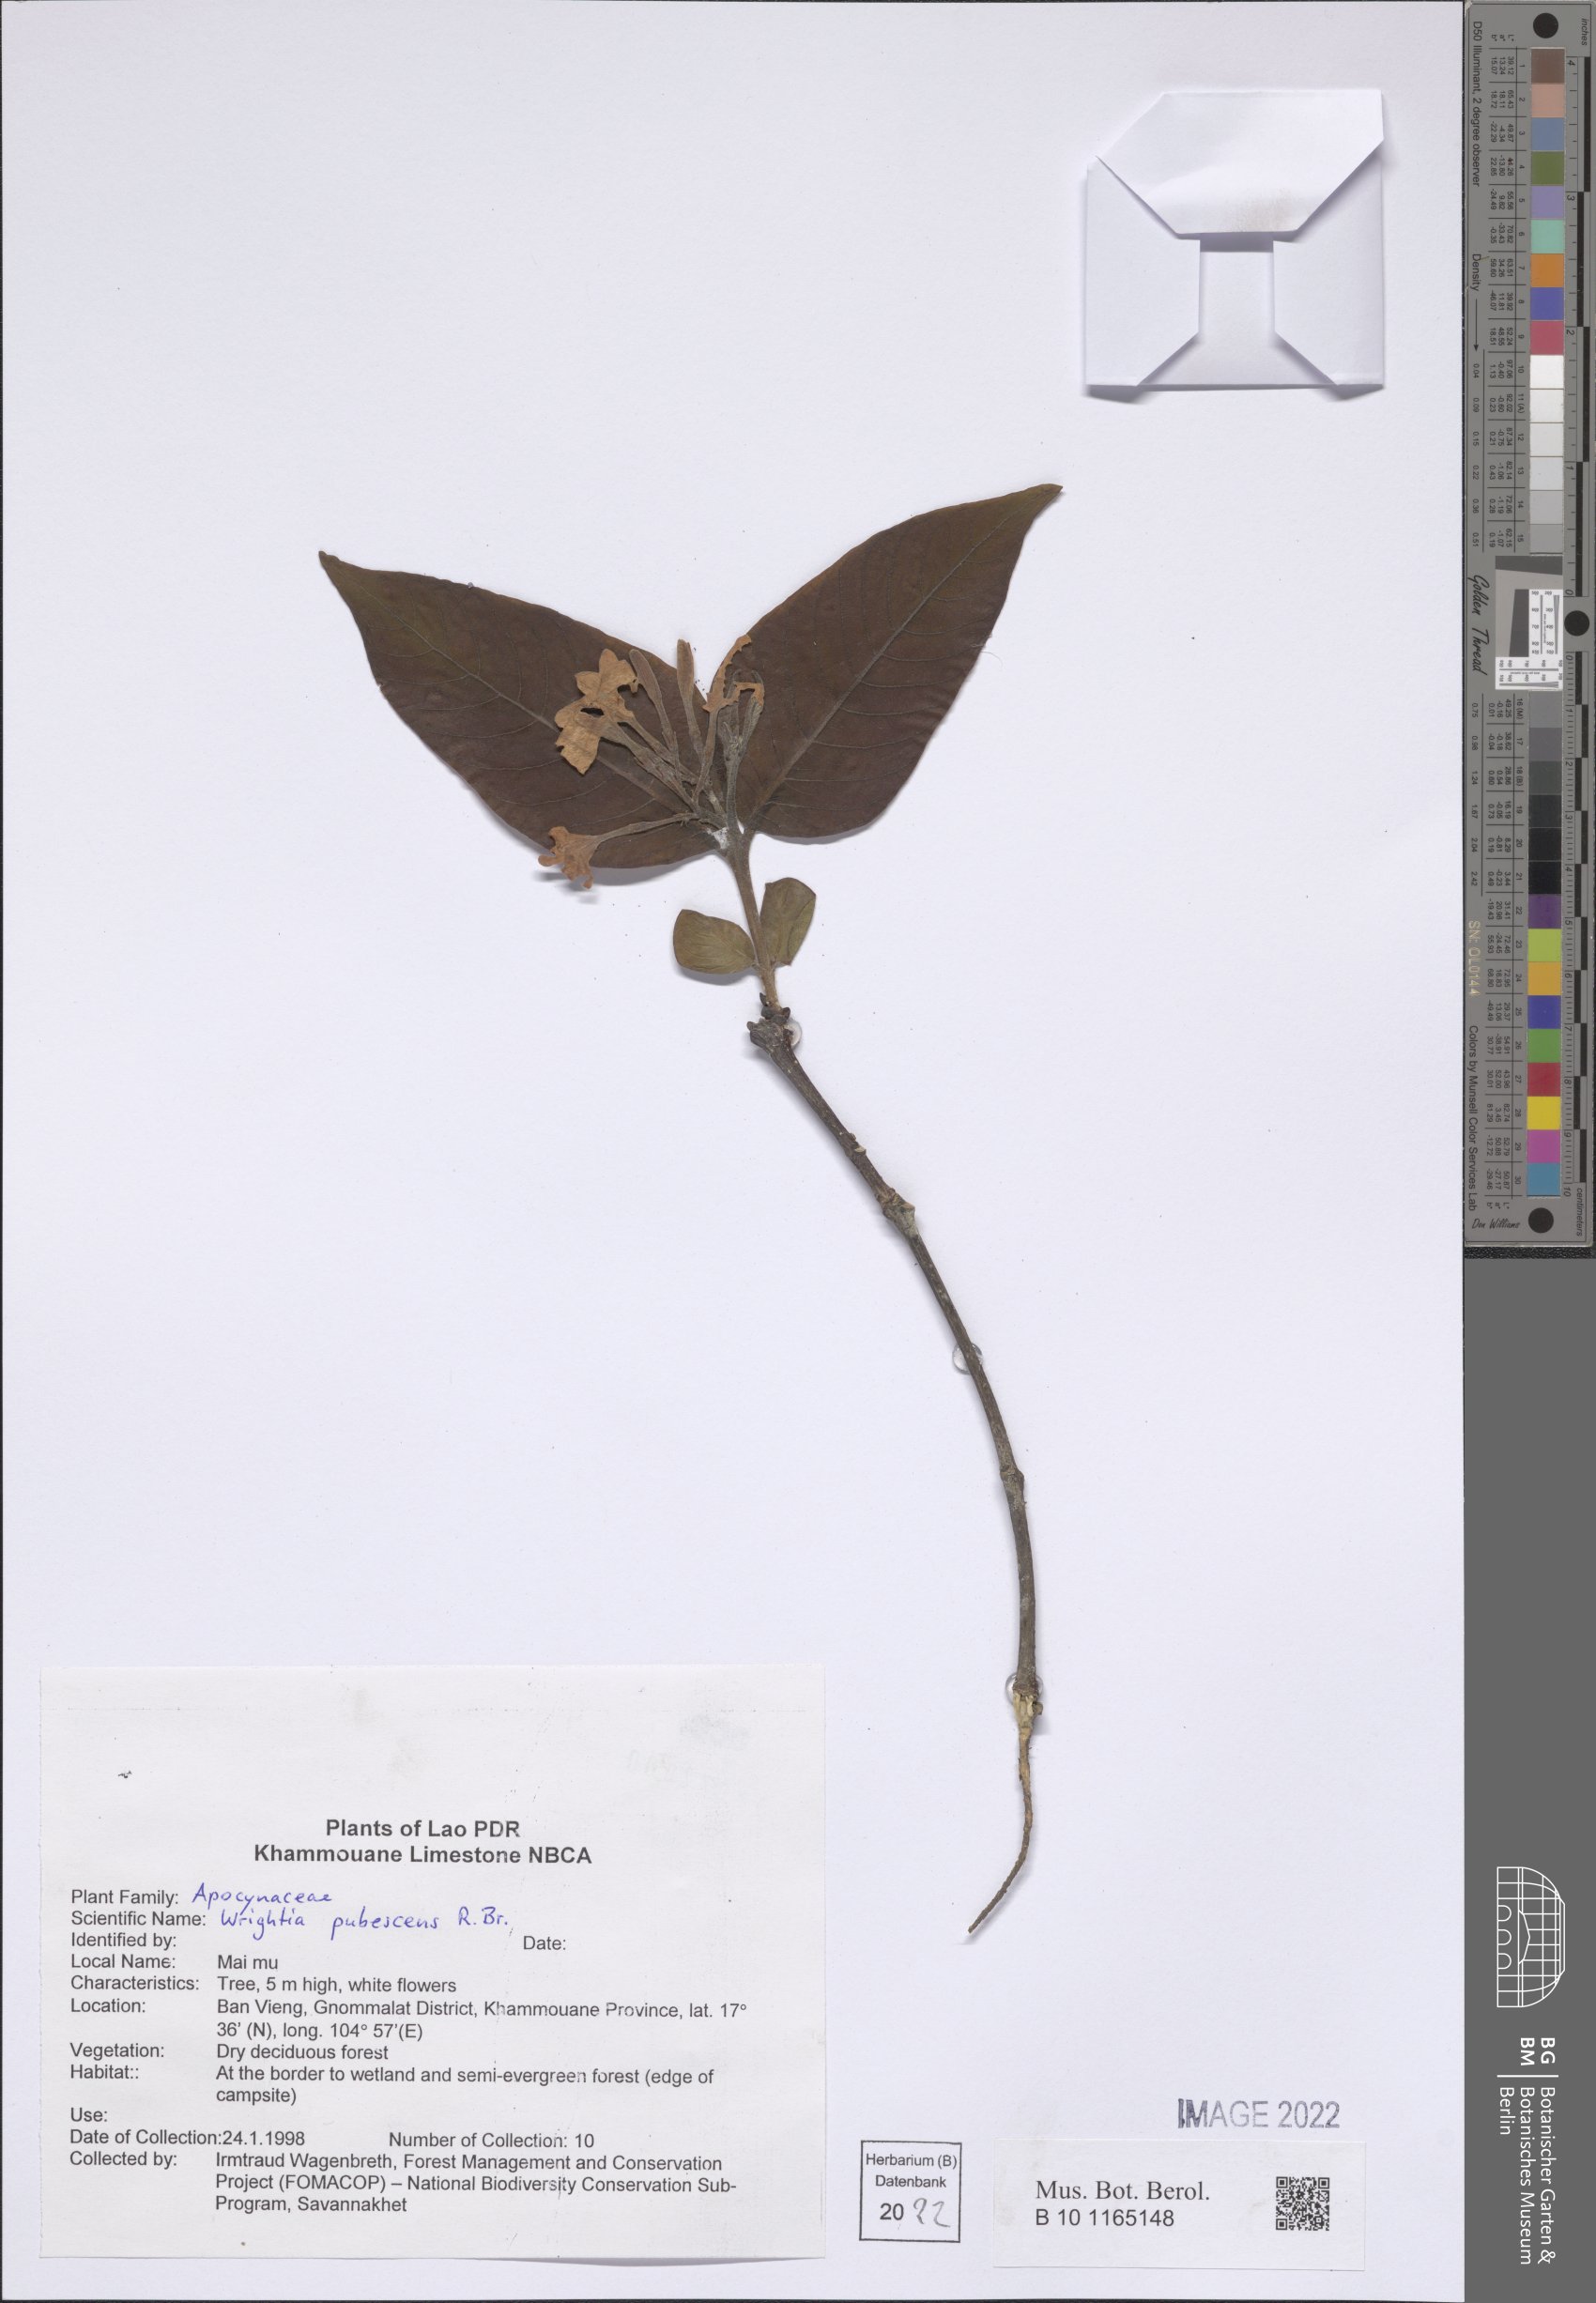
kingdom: Plantae
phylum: Tracheophyta
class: Magnoliopsida
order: Gentianales
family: Apocynaceae
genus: Wrightia
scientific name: Wrightia pubescens
